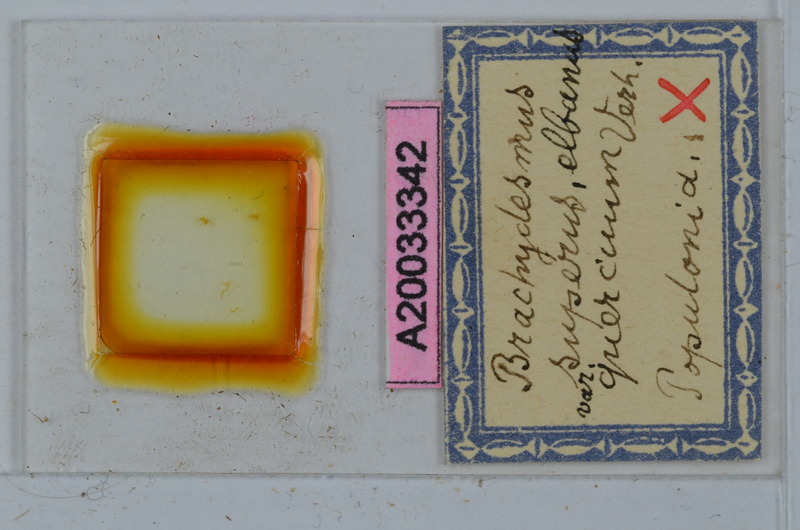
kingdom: Animalia
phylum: Arthropoda
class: Diplopoda
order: Polydesmida
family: Polydesmidae
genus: Brachydesmus
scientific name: Brachydesmus superus
